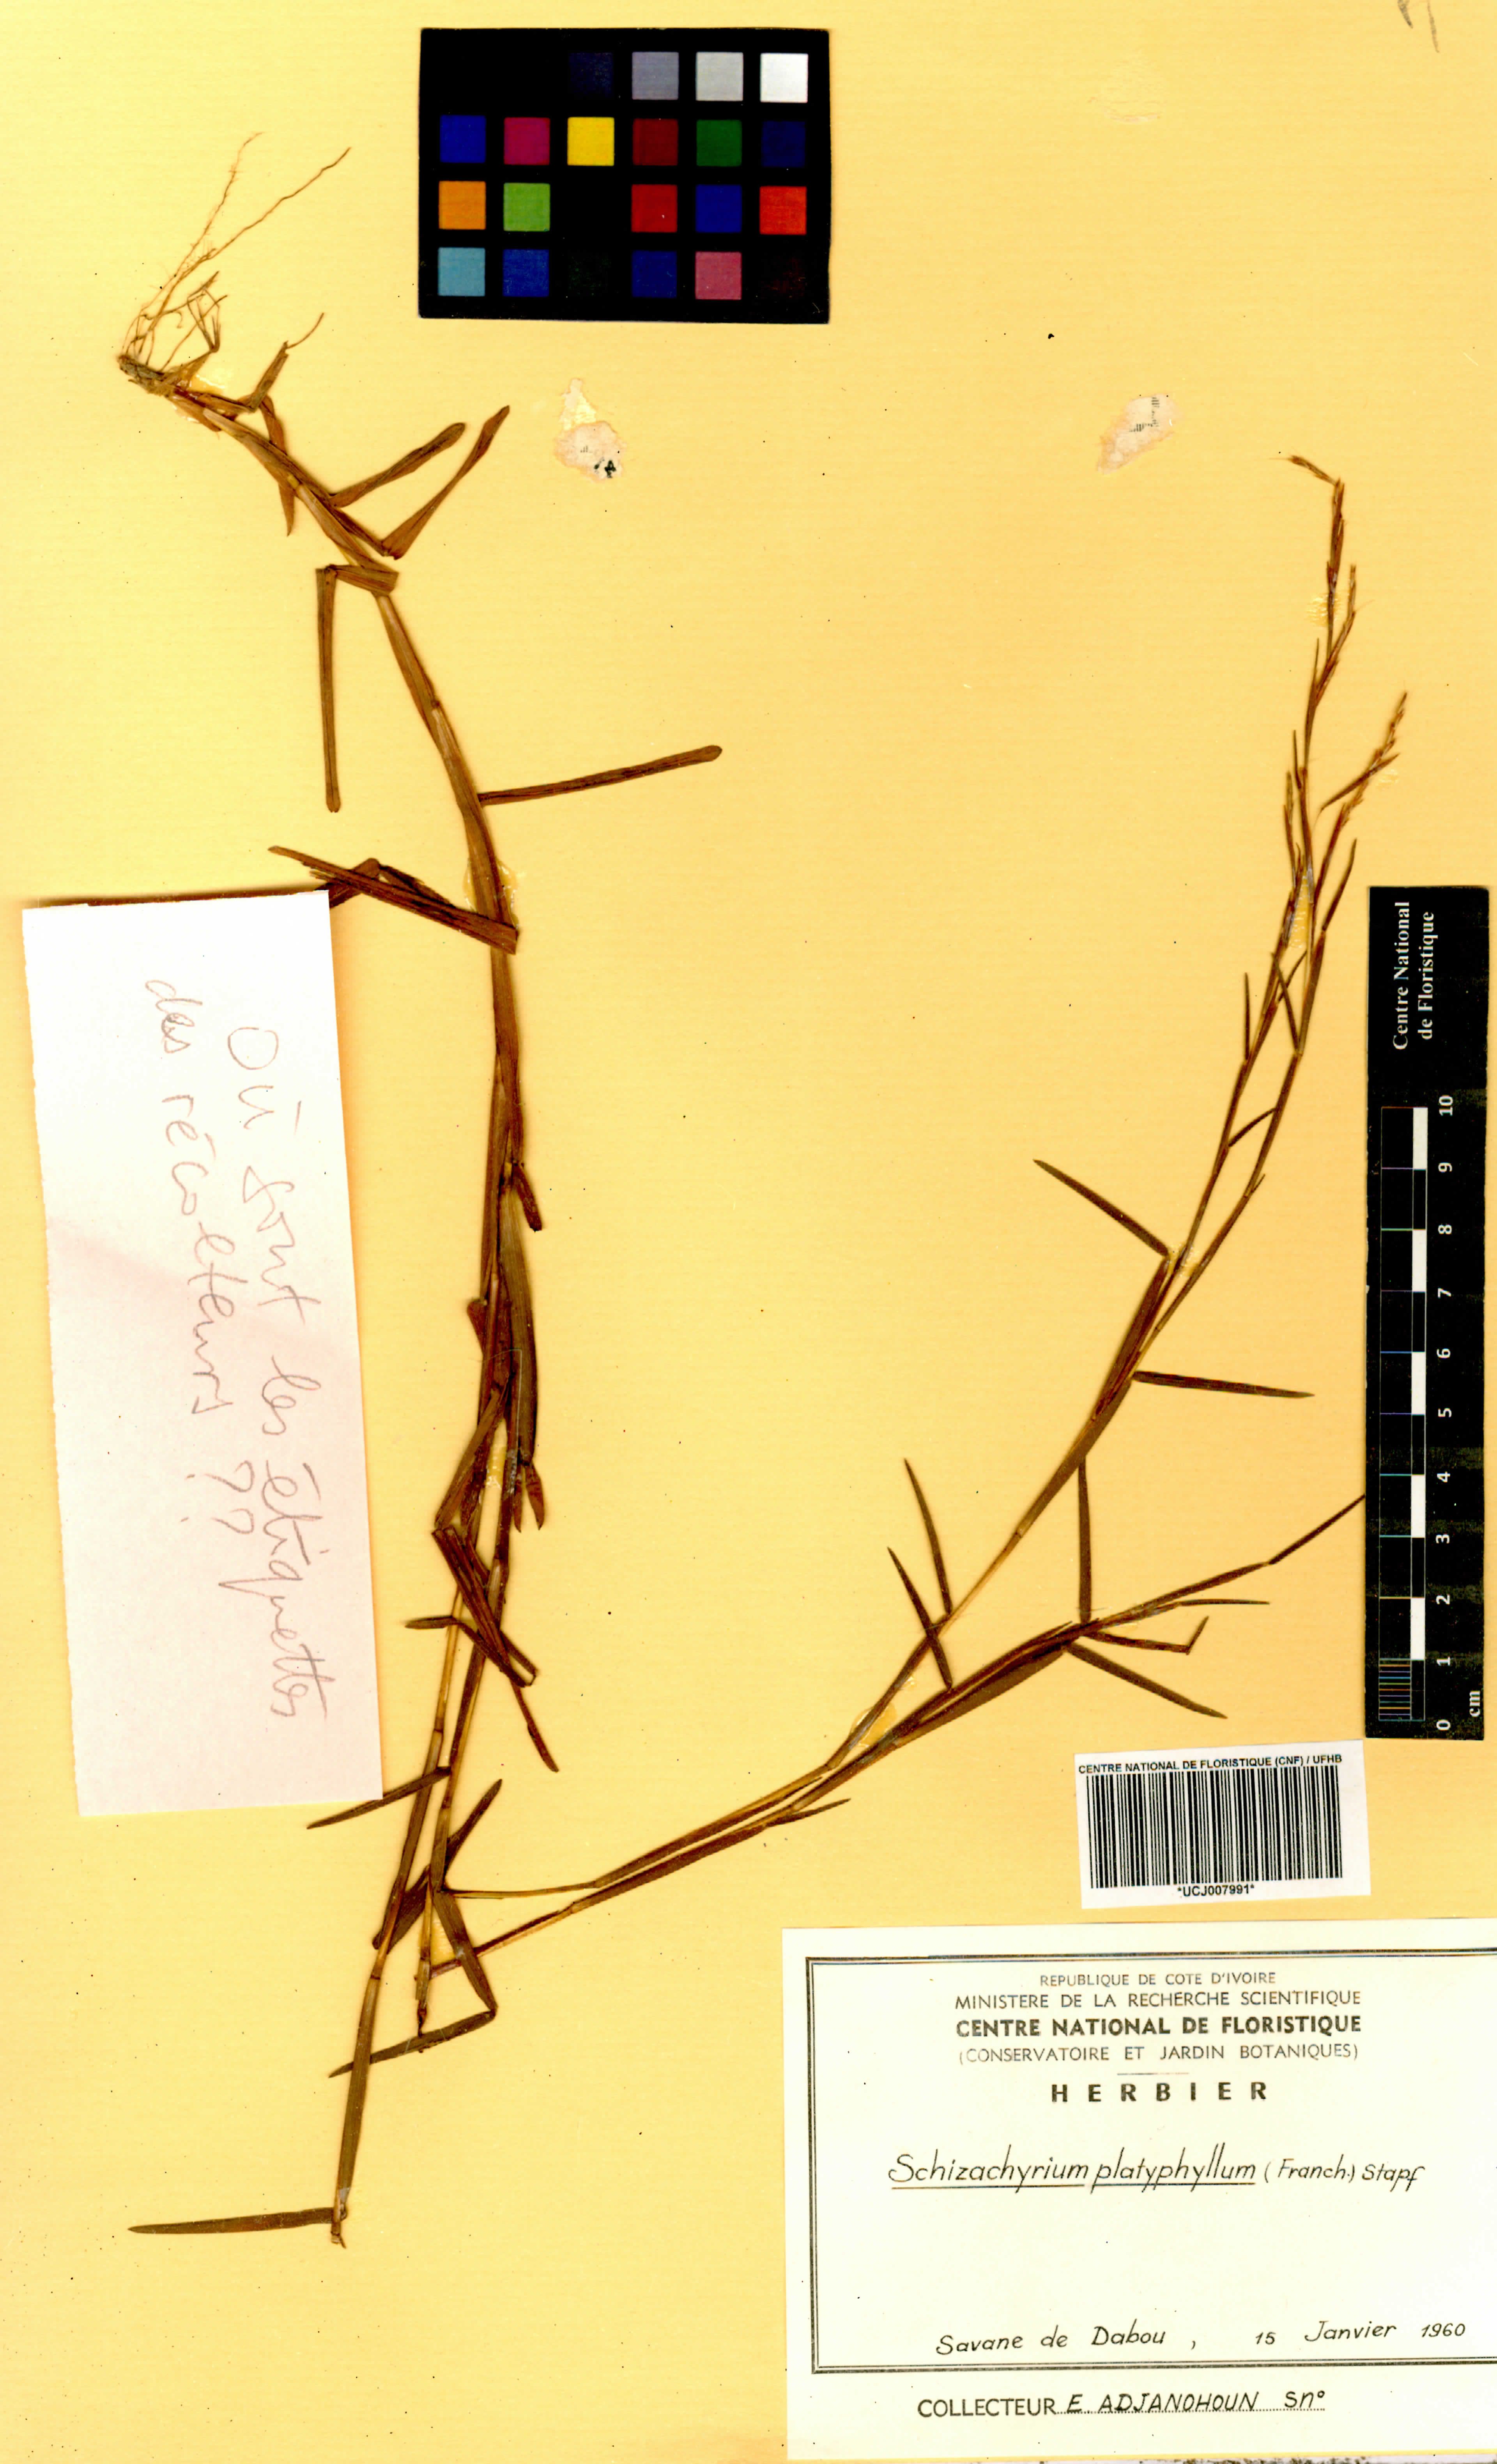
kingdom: Plantae
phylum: Tracheophyta
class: Liliopsida
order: Poales
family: Poaceae
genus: Schizachyrium
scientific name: Schizachyrium platyphyllum
